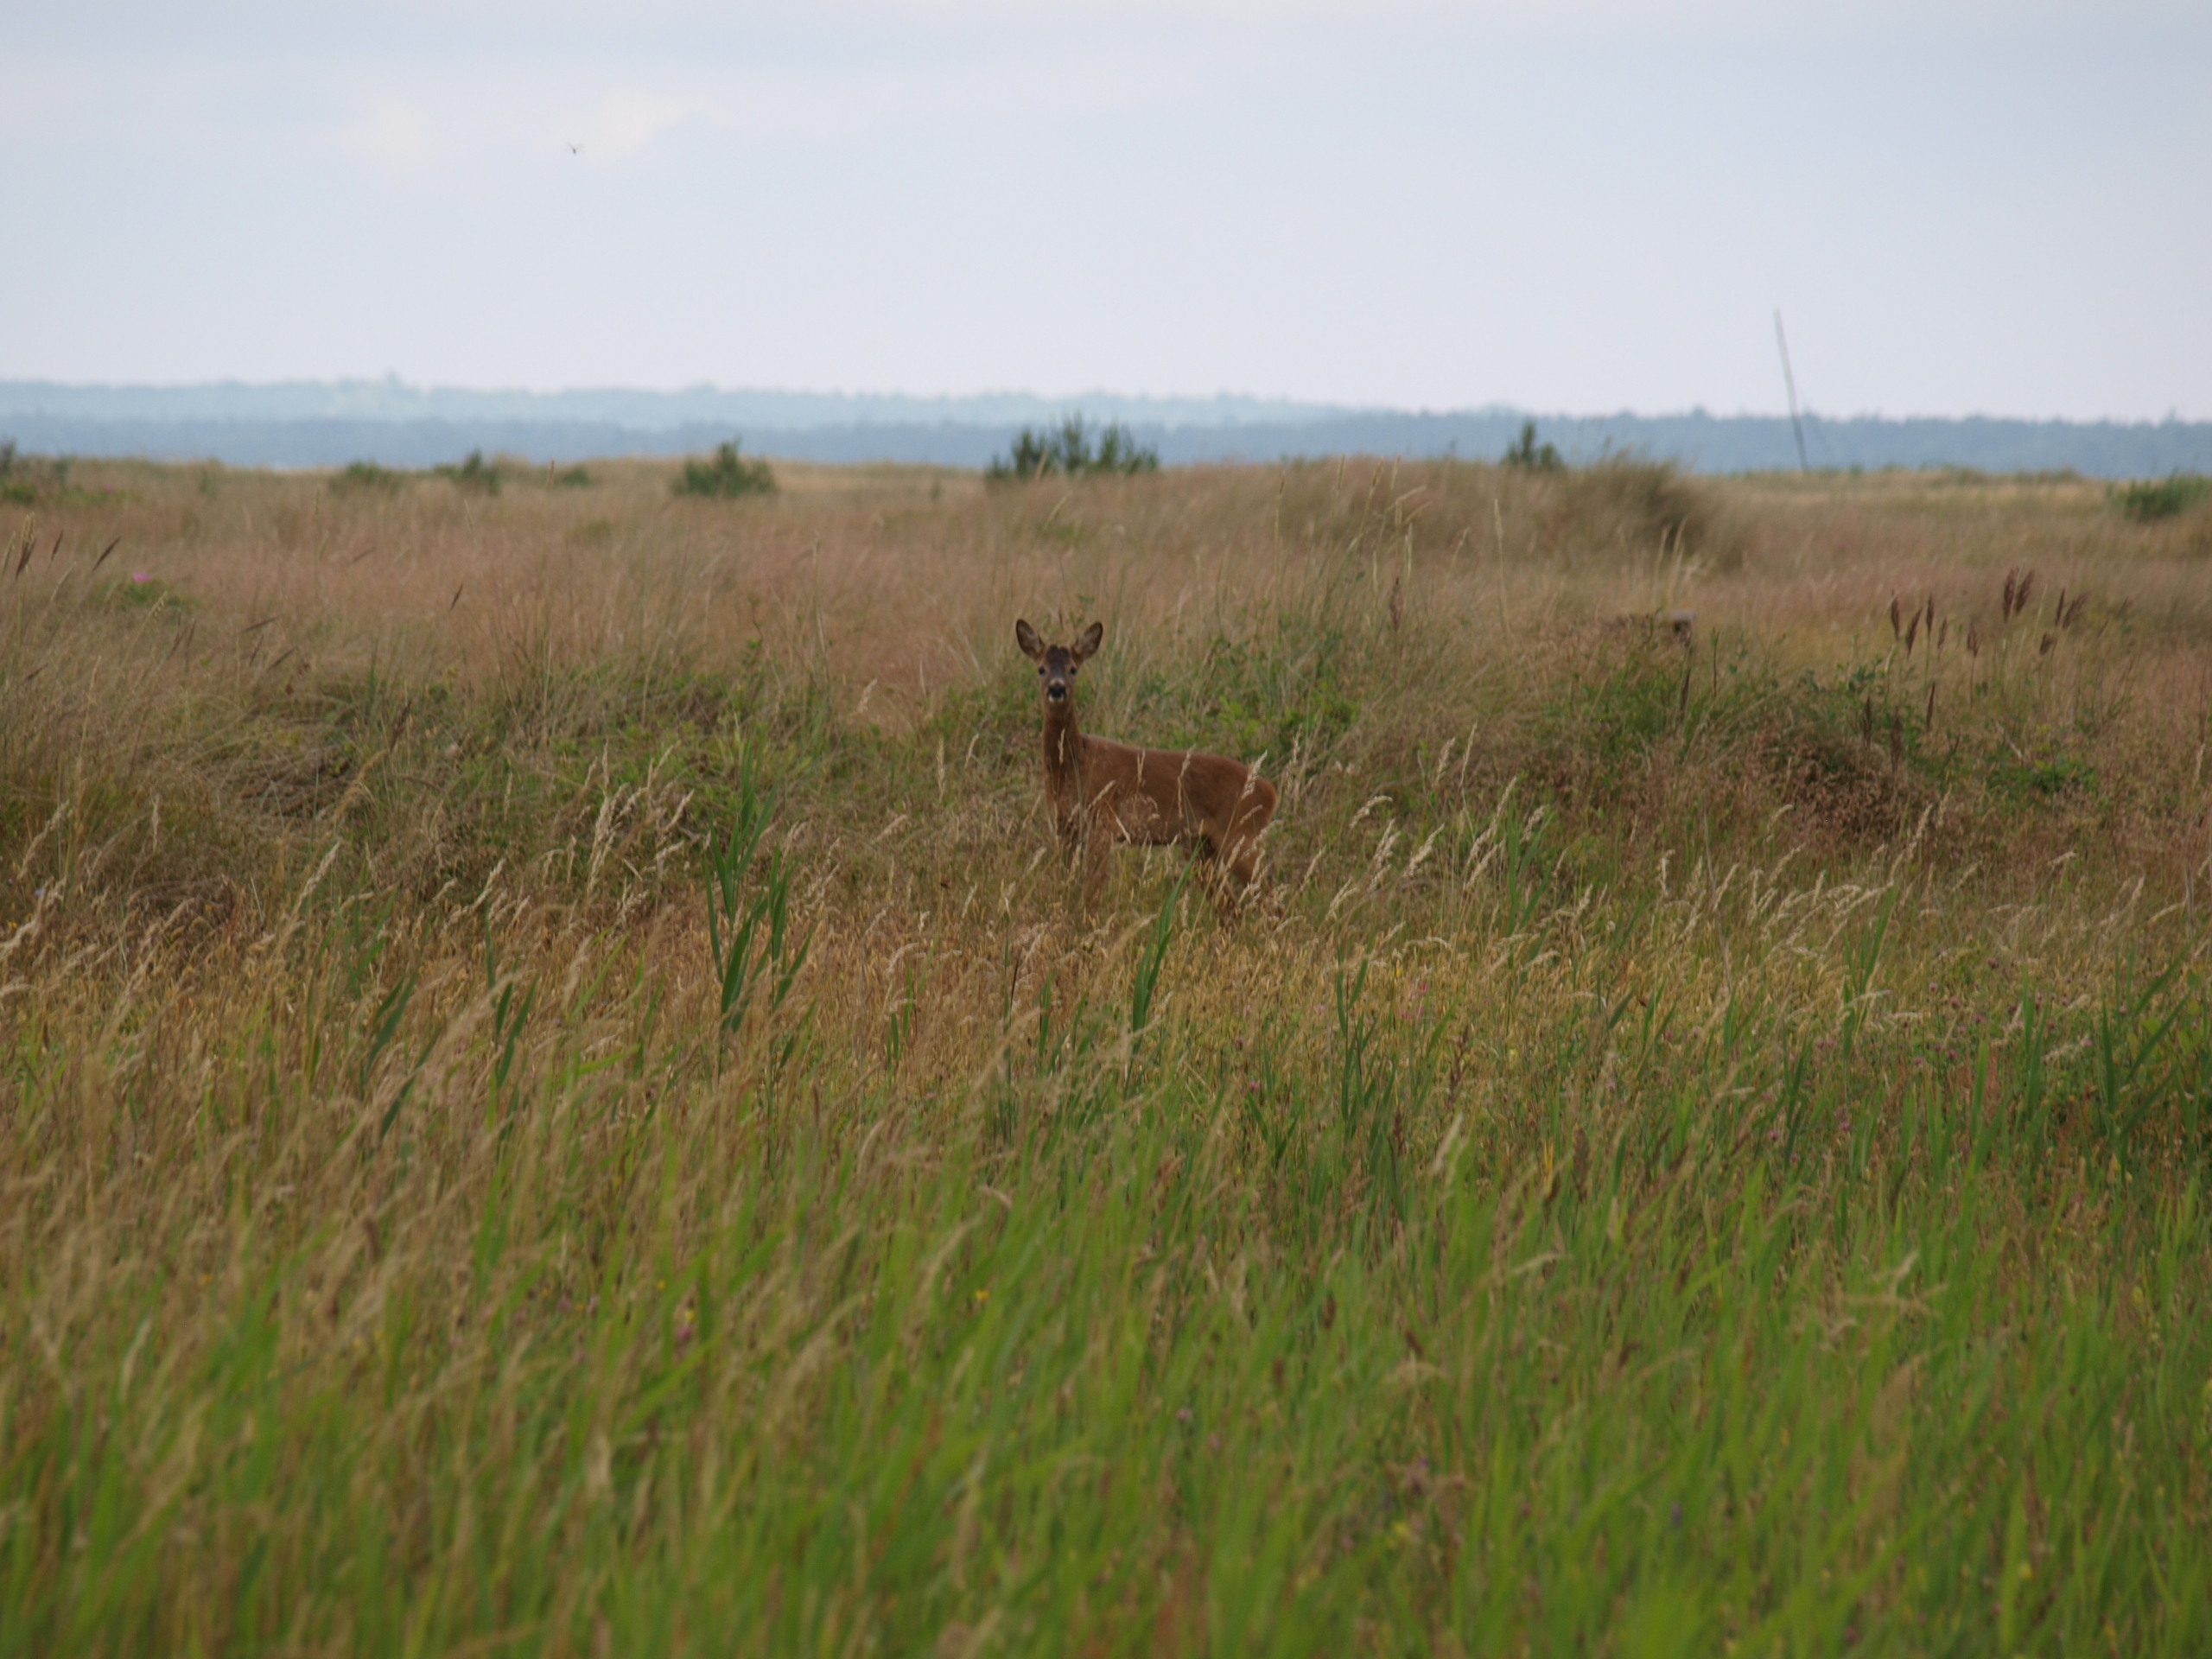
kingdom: Animalia
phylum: Chordata
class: Mammalia
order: Artiodactyla
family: Cervidae
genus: Capreolus
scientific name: Capreolus capreolus
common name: Rådyr
